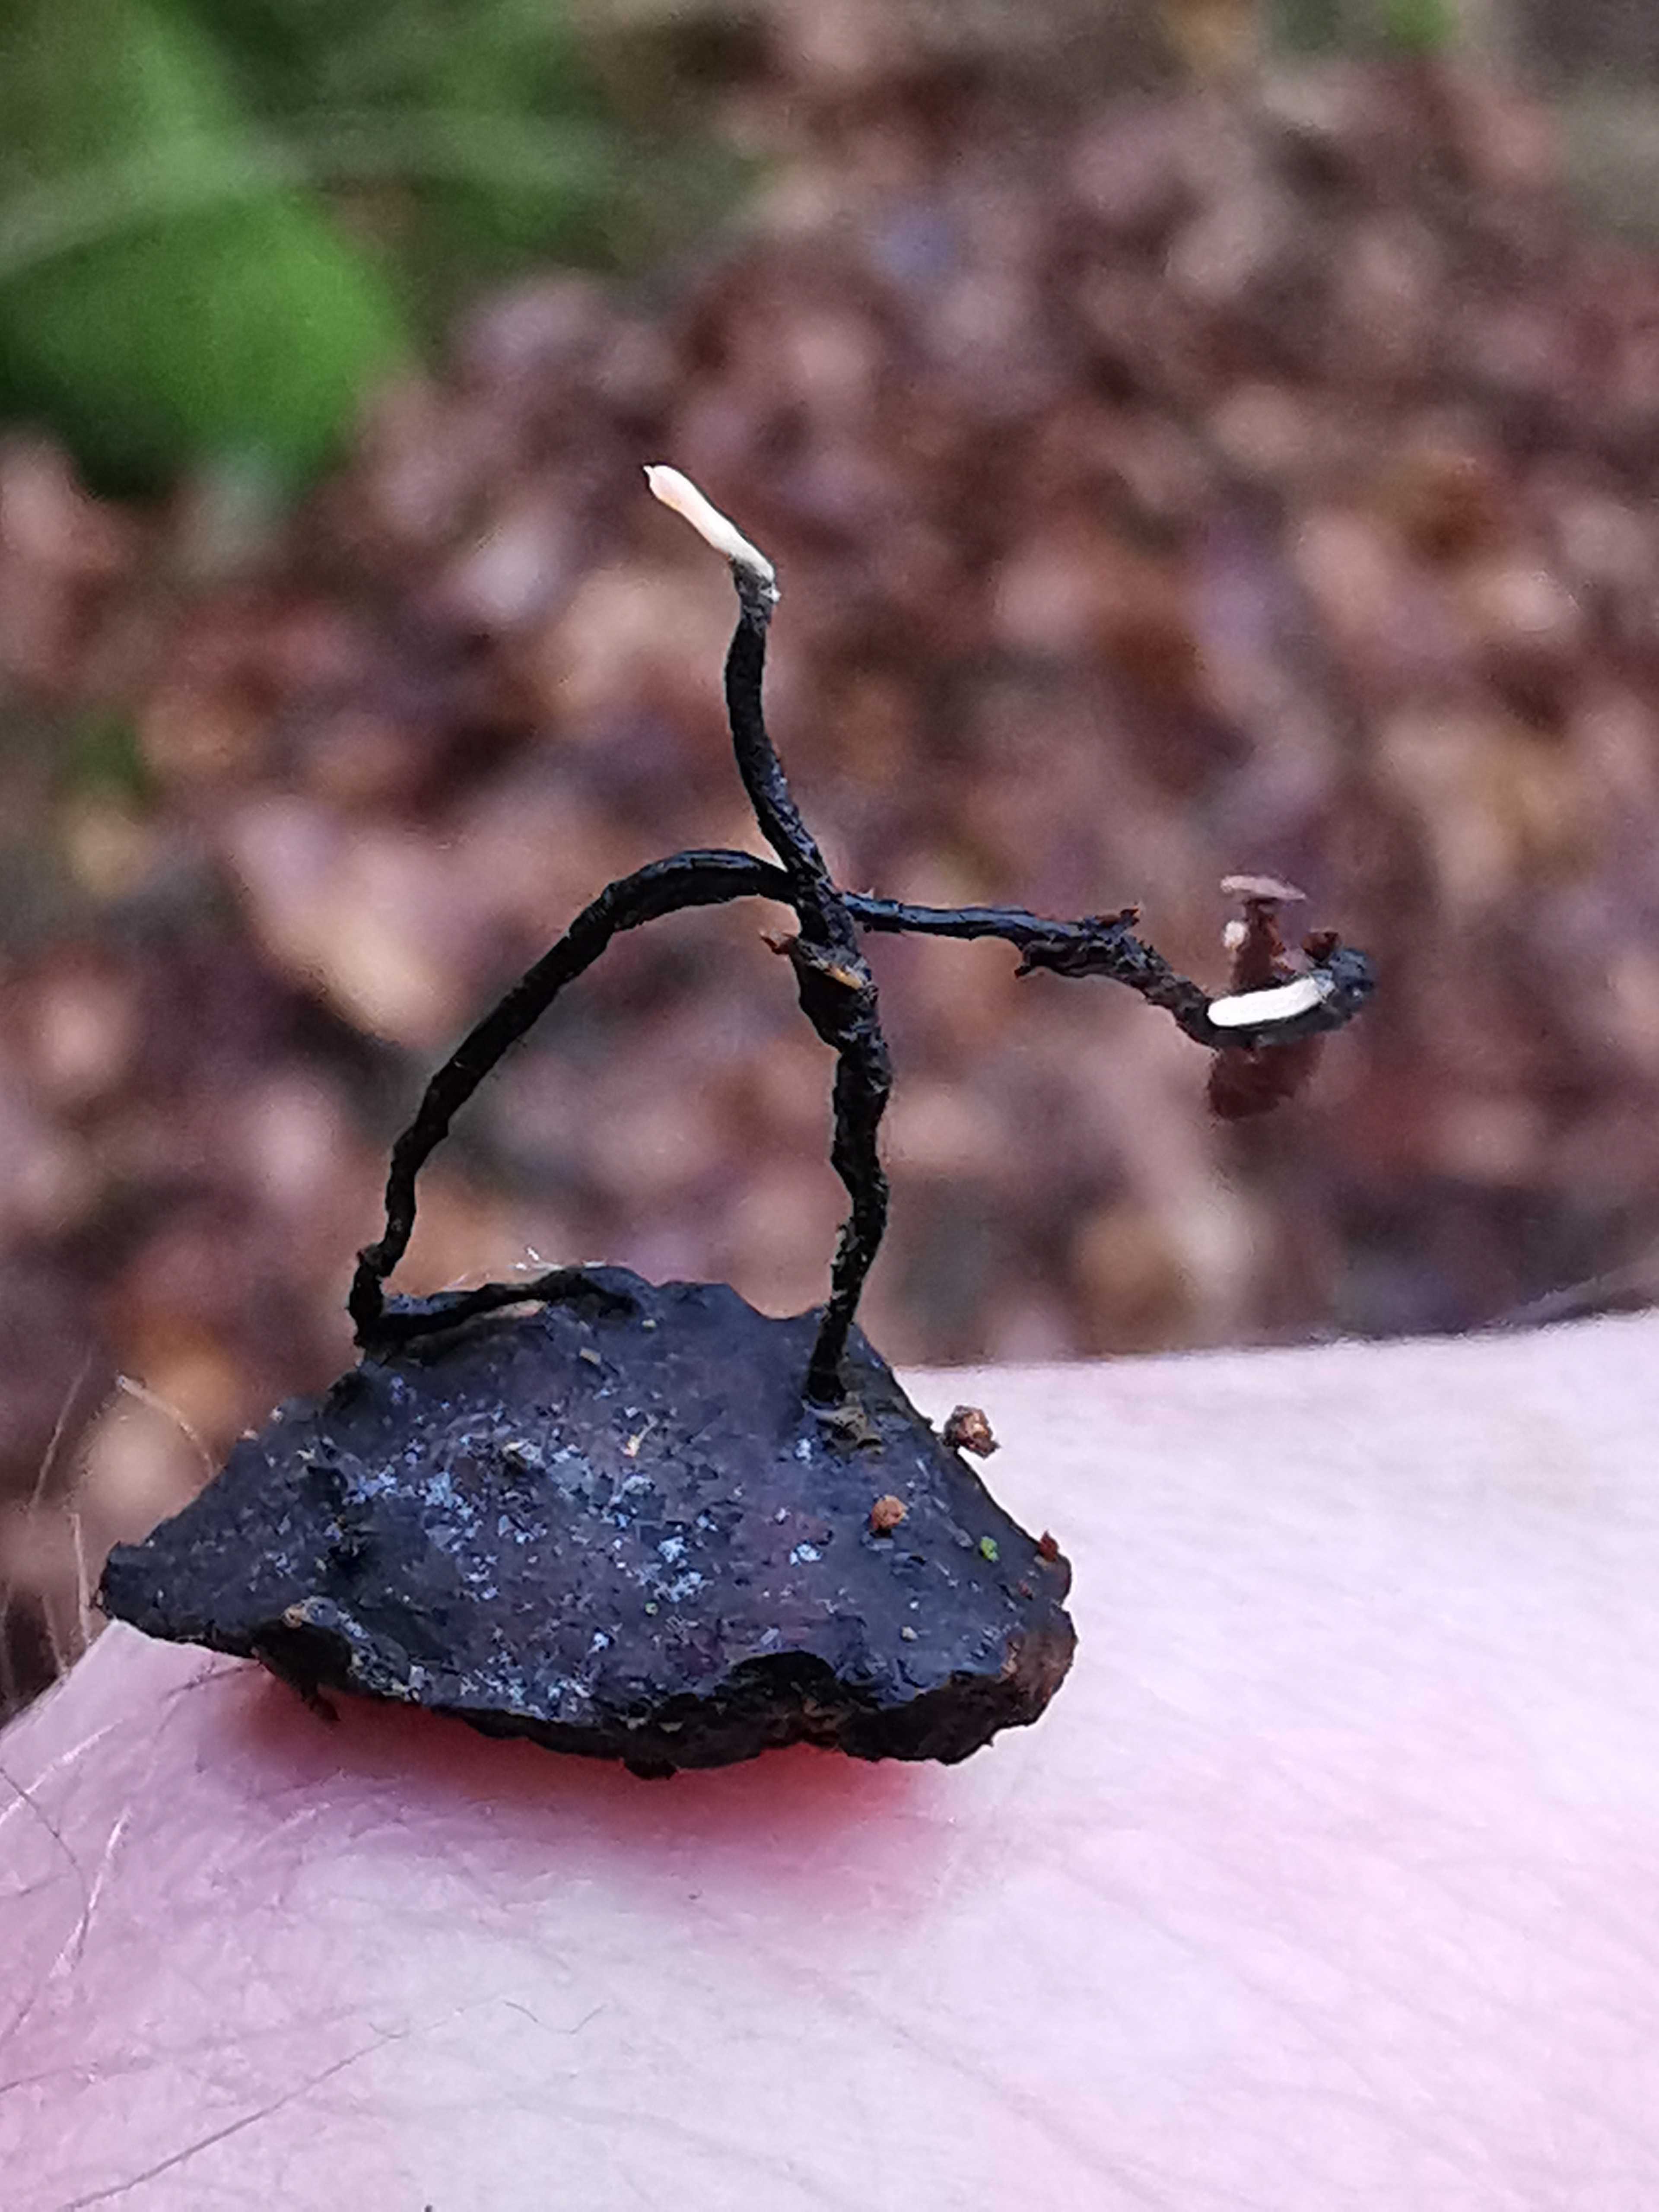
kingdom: Fungi
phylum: Ascomycota
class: Sordariomycetes
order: Xylariales
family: Xylariaceae
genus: Xylaria
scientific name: Xylaria carpophila
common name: bogskål-stødsvamp
